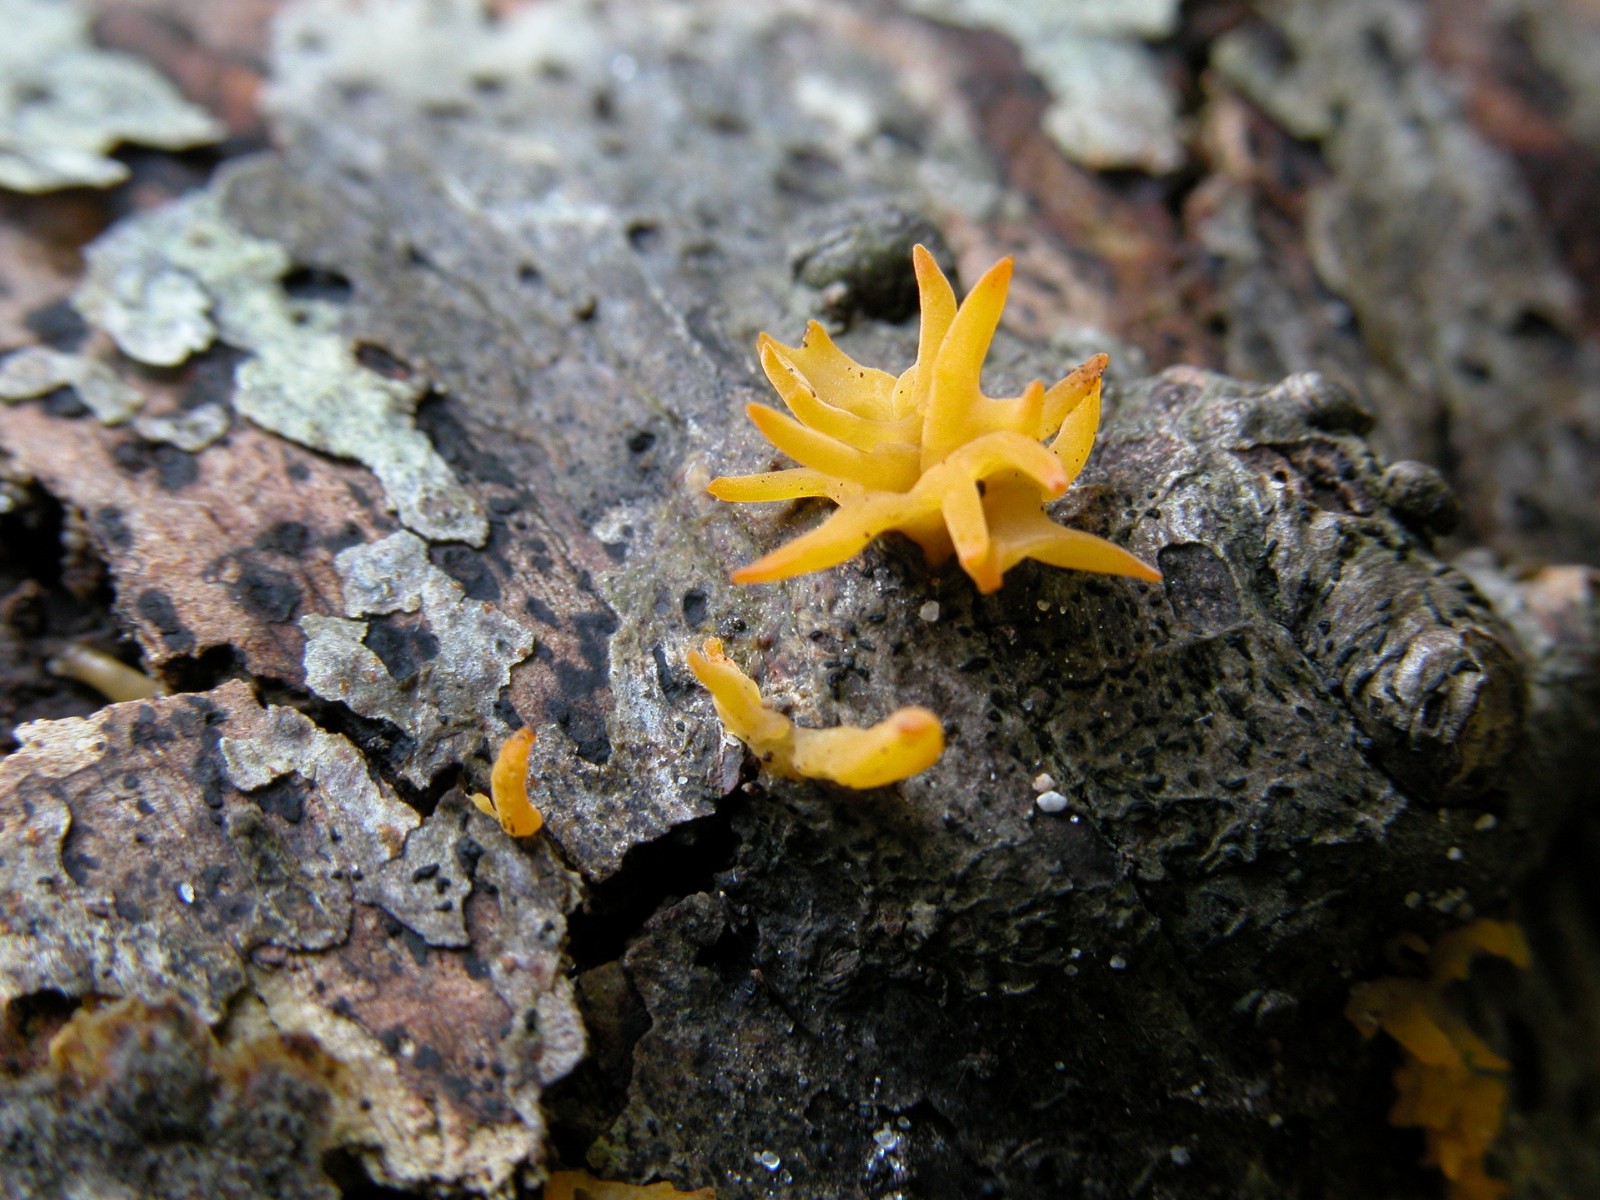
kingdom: Fungi
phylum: Basidiomycota
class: Dacrymycetes
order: Dacrymycetales
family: Dacrymycetaceae
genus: Calocera
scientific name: Calocera cornea
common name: liden guldgaffel
